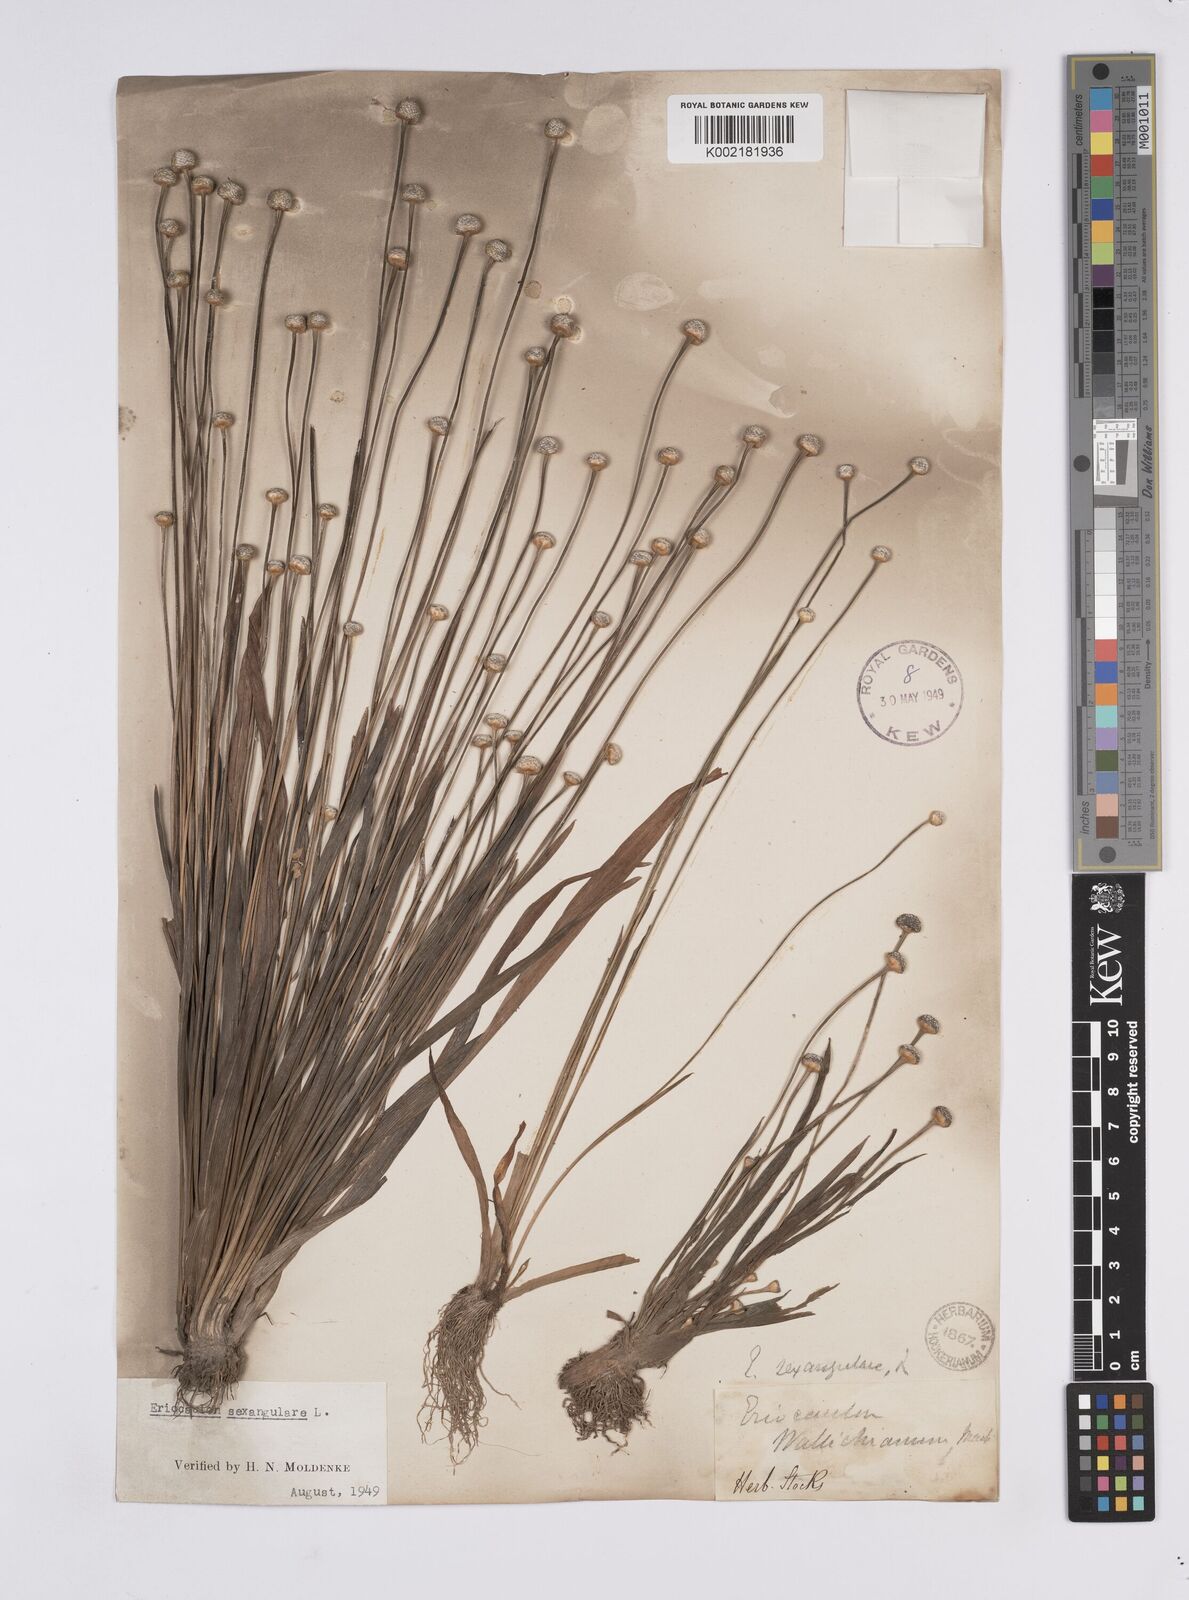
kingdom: Plantae
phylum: Tracheophyta
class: Liliopsida
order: Poales
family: Eriocaulaceae
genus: Eriocaulon
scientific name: Eriocaulon sexangulare
